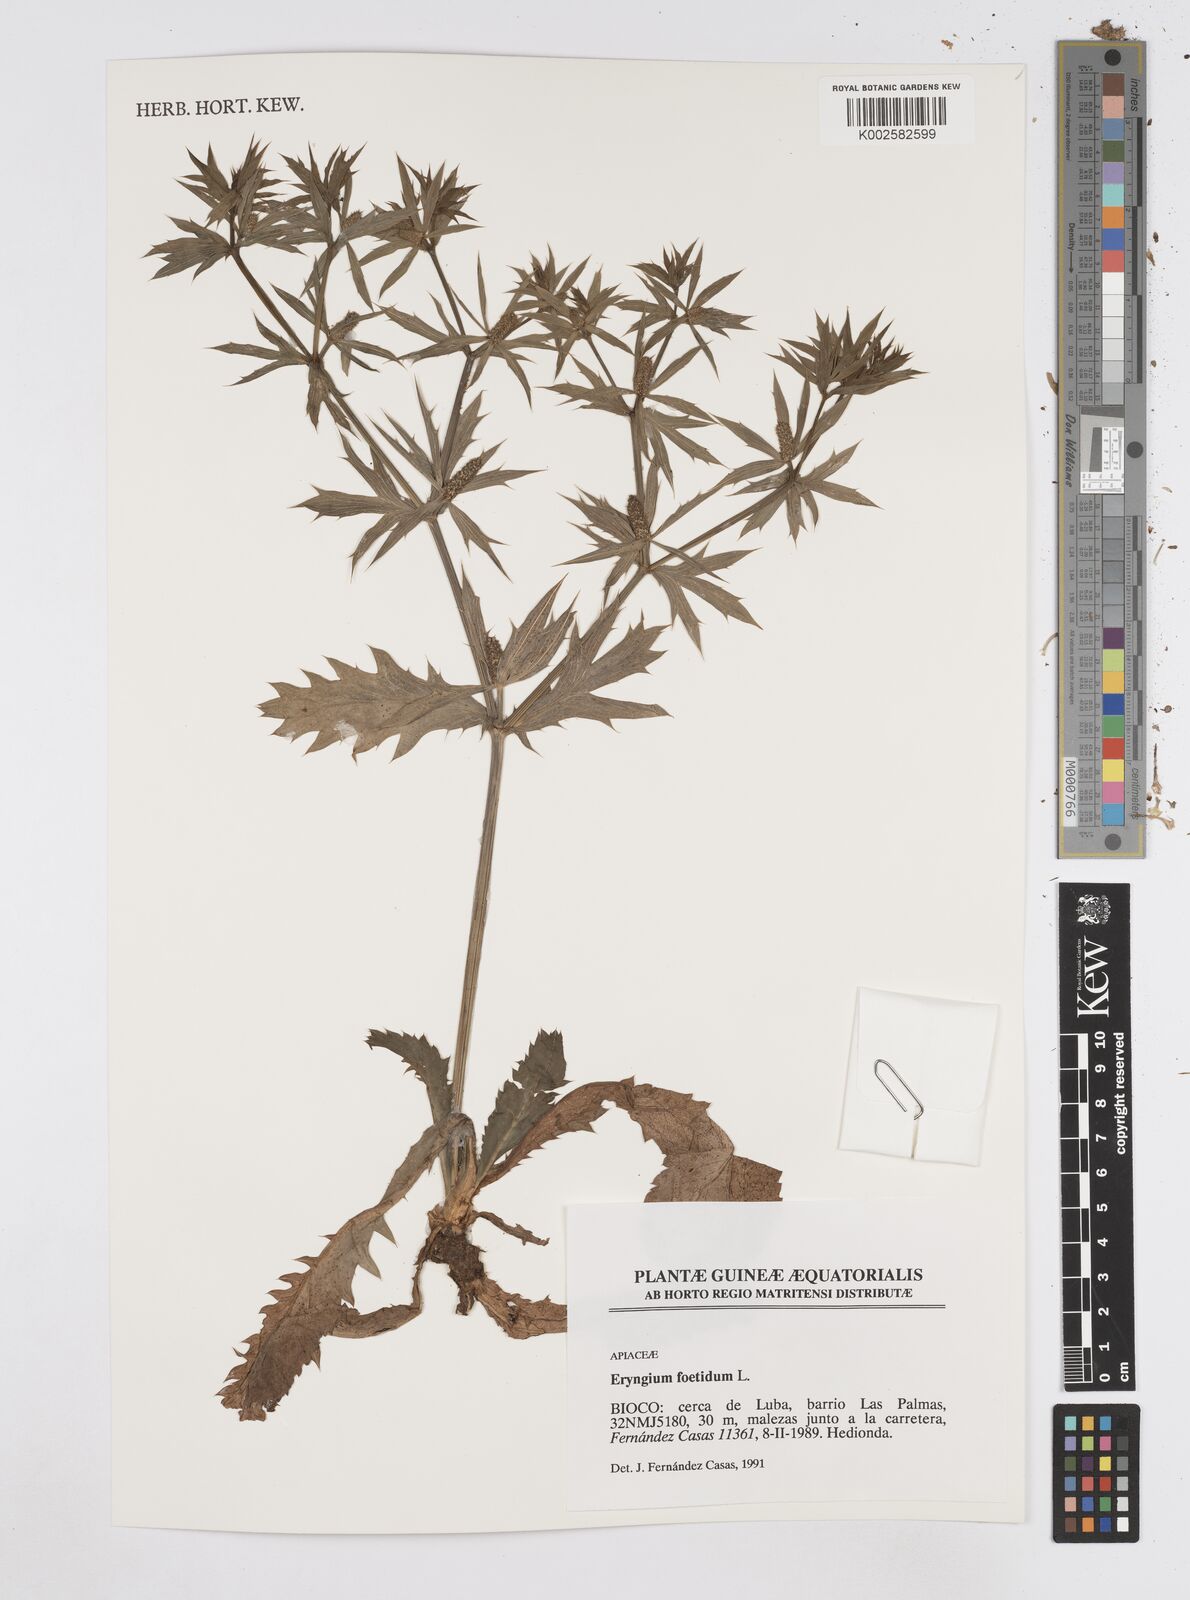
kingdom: Plantae
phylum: Tracheophyta
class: Magnoliopsida
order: Apiales
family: Apiaceae
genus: Eryngium
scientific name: Eryngium foetidum
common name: Fitweed
